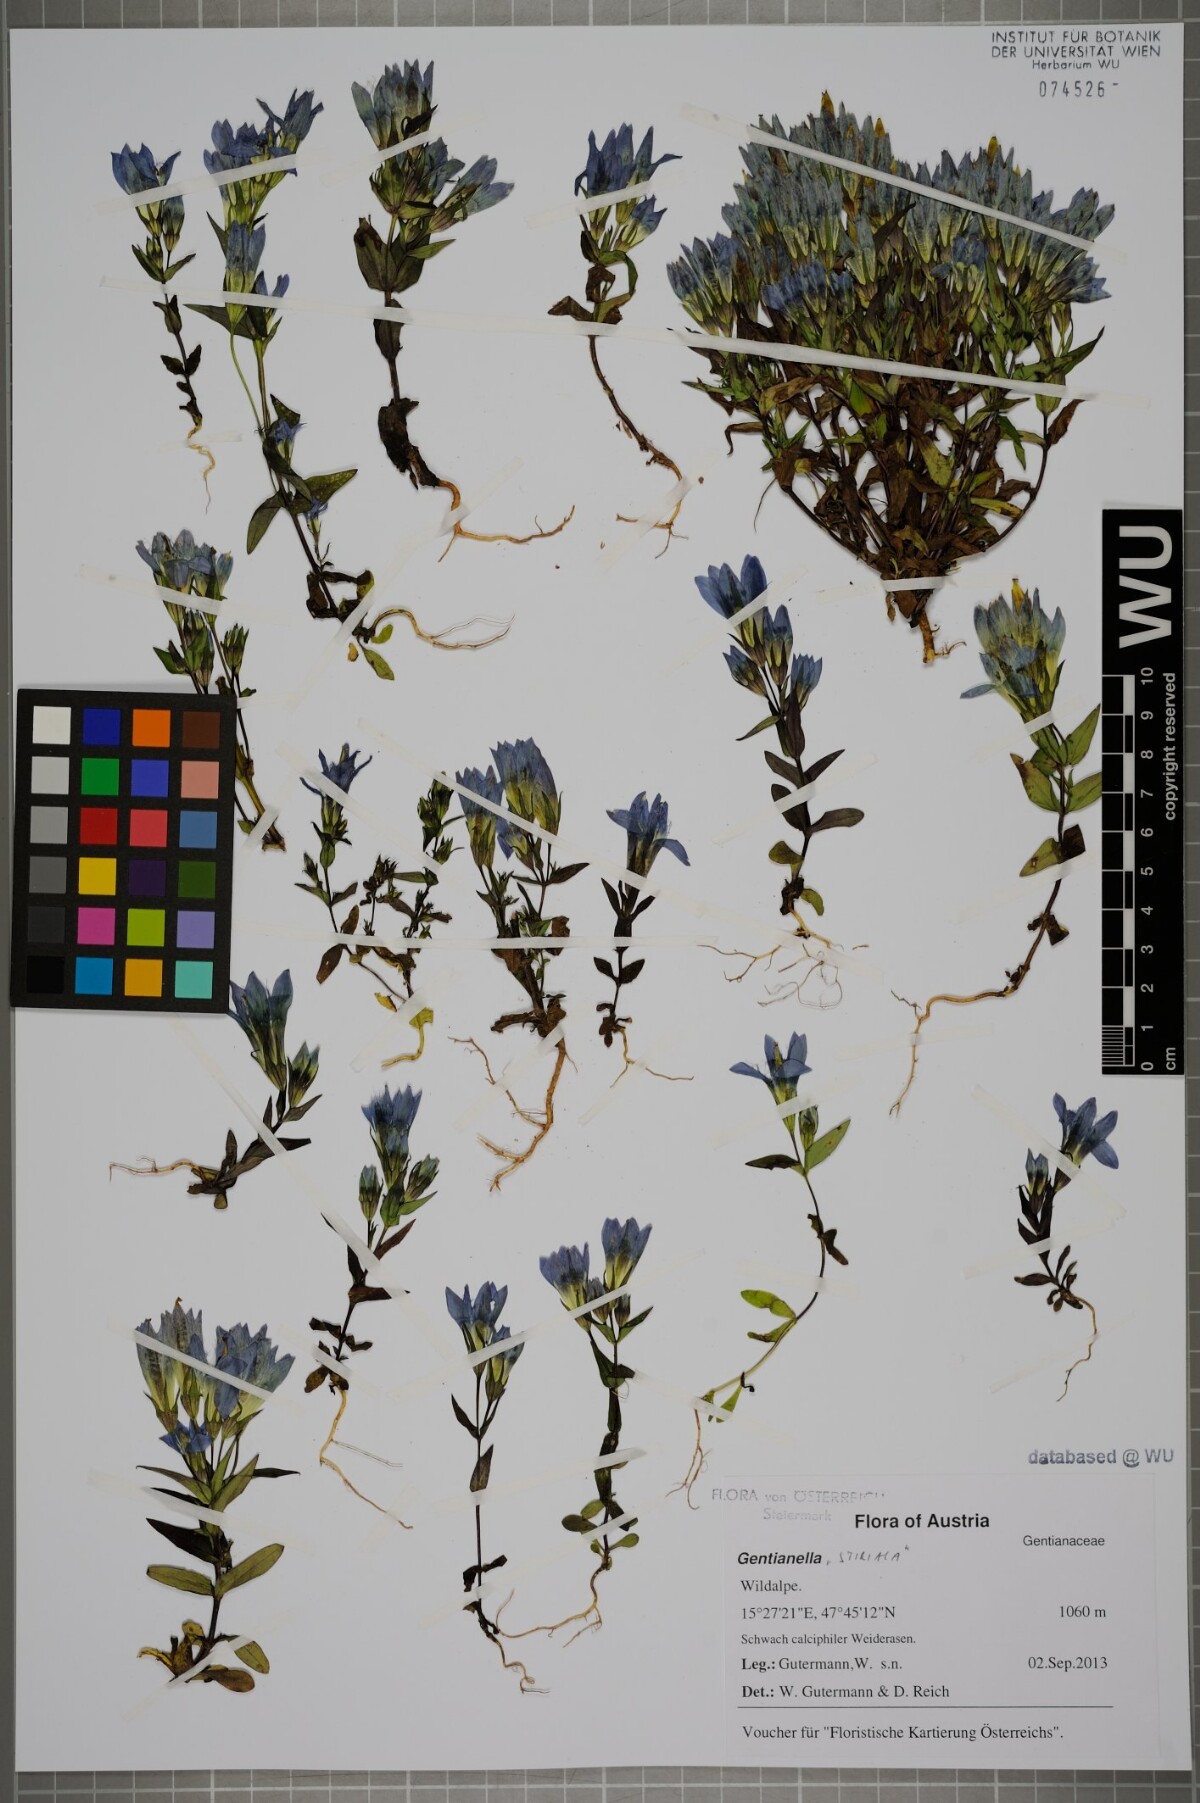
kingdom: Plantae
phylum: Tracheophyta
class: Magnoliopsida
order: Gentianales
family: Gentianaceae
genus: Gentianella
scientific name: Gentianella
